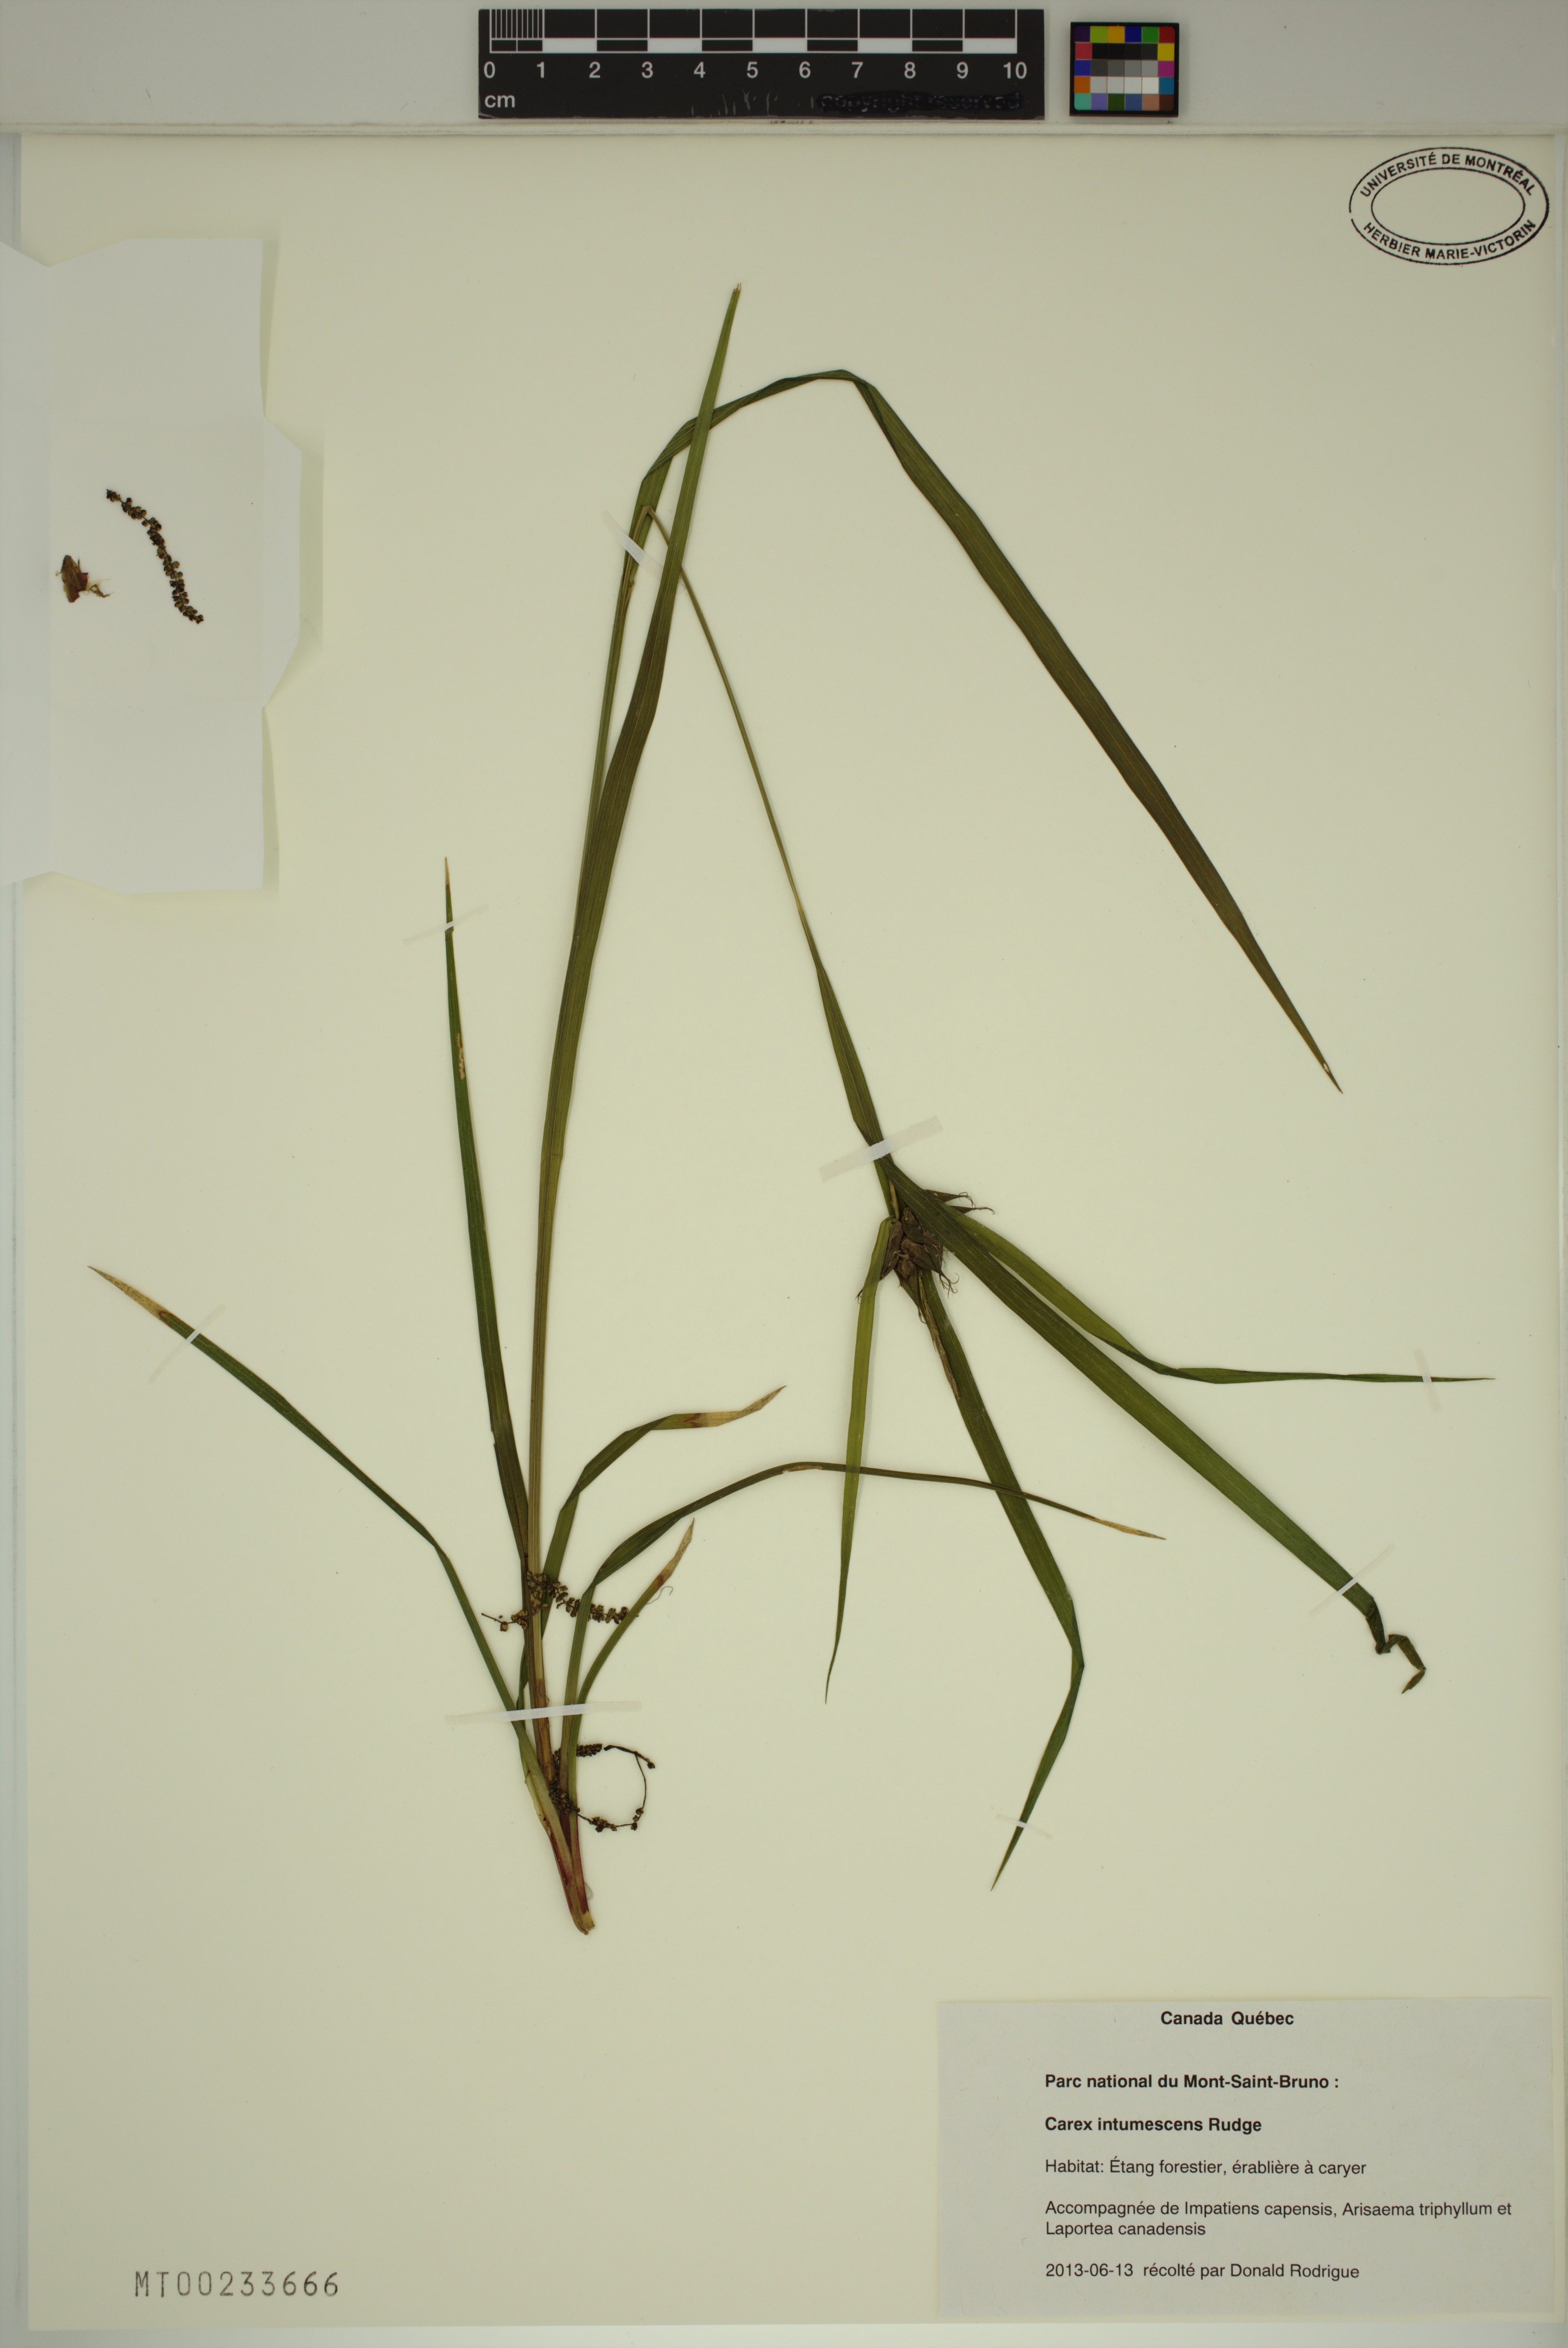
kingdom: Plantae
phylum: Tracheophyta
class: Liliopsida
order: Poales
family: Cyperaceae
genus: Carex
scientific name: Carex intumescens
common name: Greater bladder sedge
